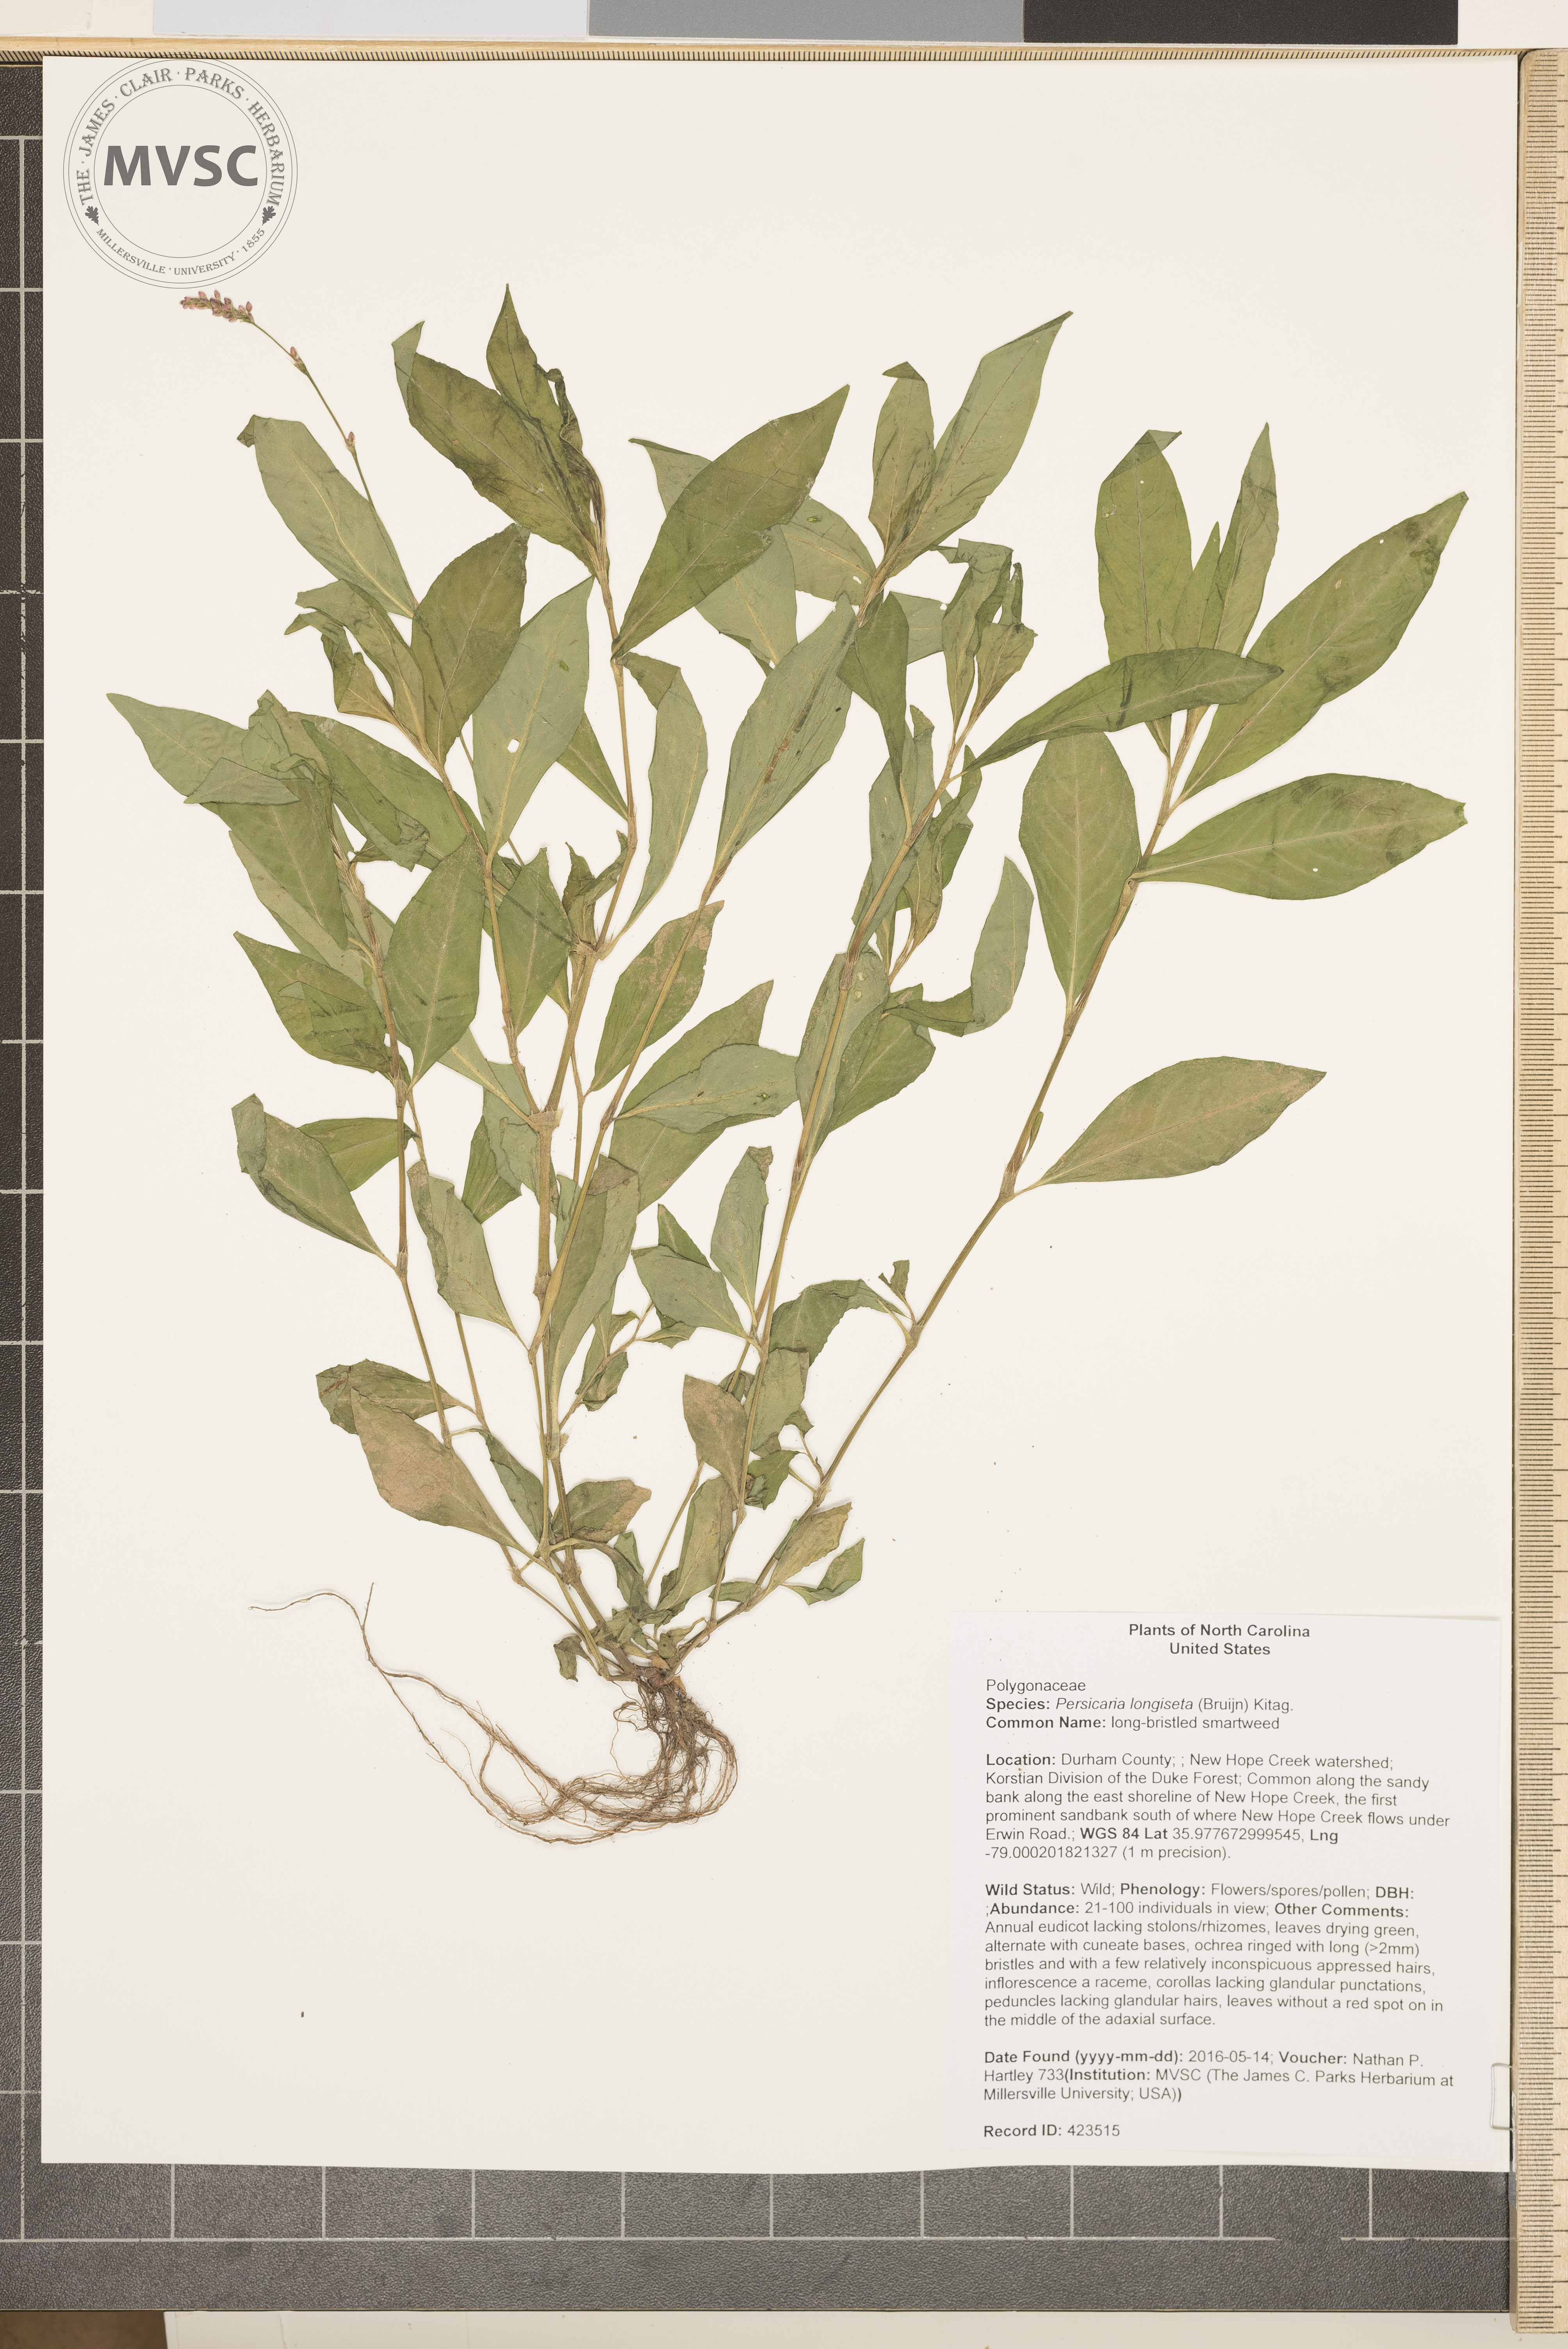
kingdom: Plantae
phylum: Tracheophyta
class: Magnoliopsida
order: Caryophyllales
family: Polygonaceae
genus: Persicaria
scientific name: Persicaria longiseta
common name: long-bristled smartweed
